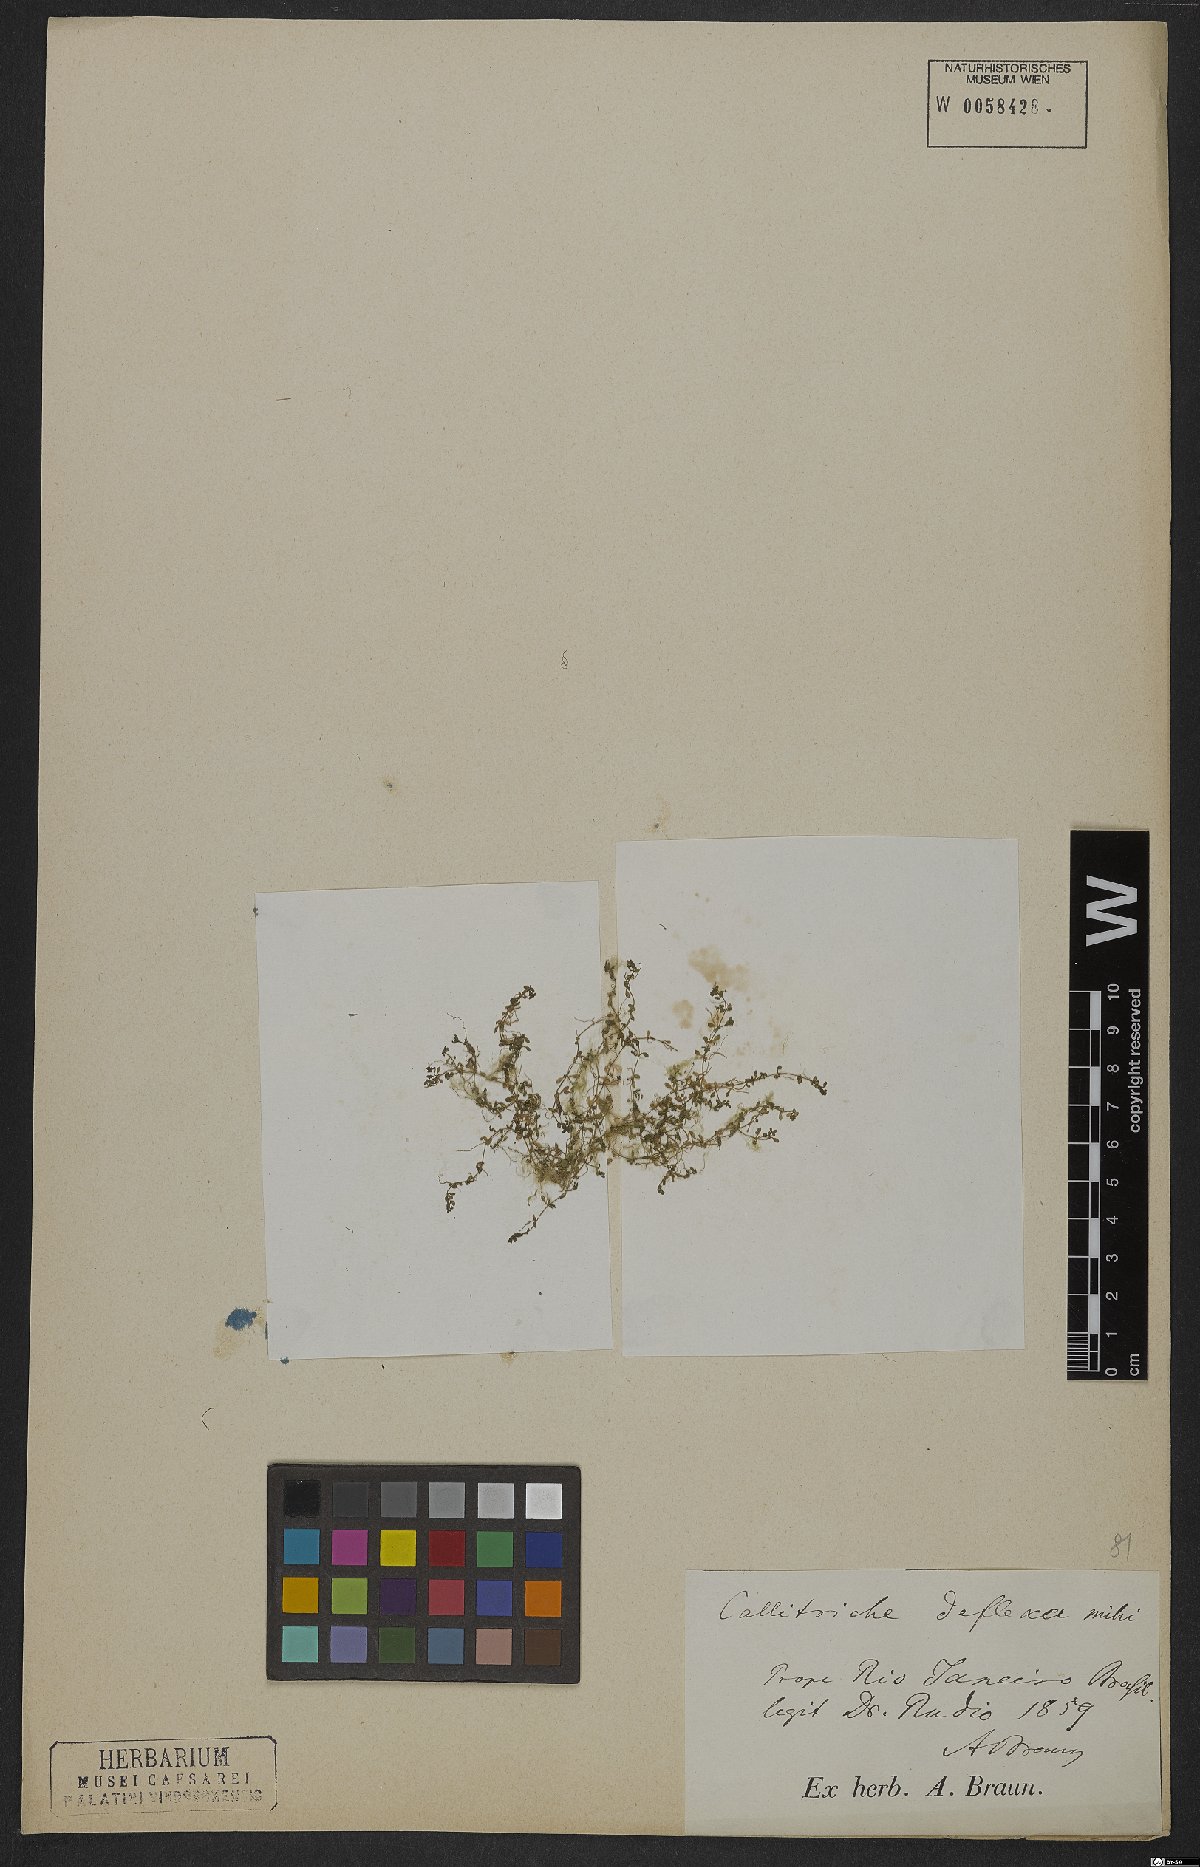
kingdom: Plantae
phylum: Tracheophyta
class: Magnoliopsida
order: Lamiales
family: Plantaginaceae
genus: Callitriche
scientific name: Callitriche deflexa
